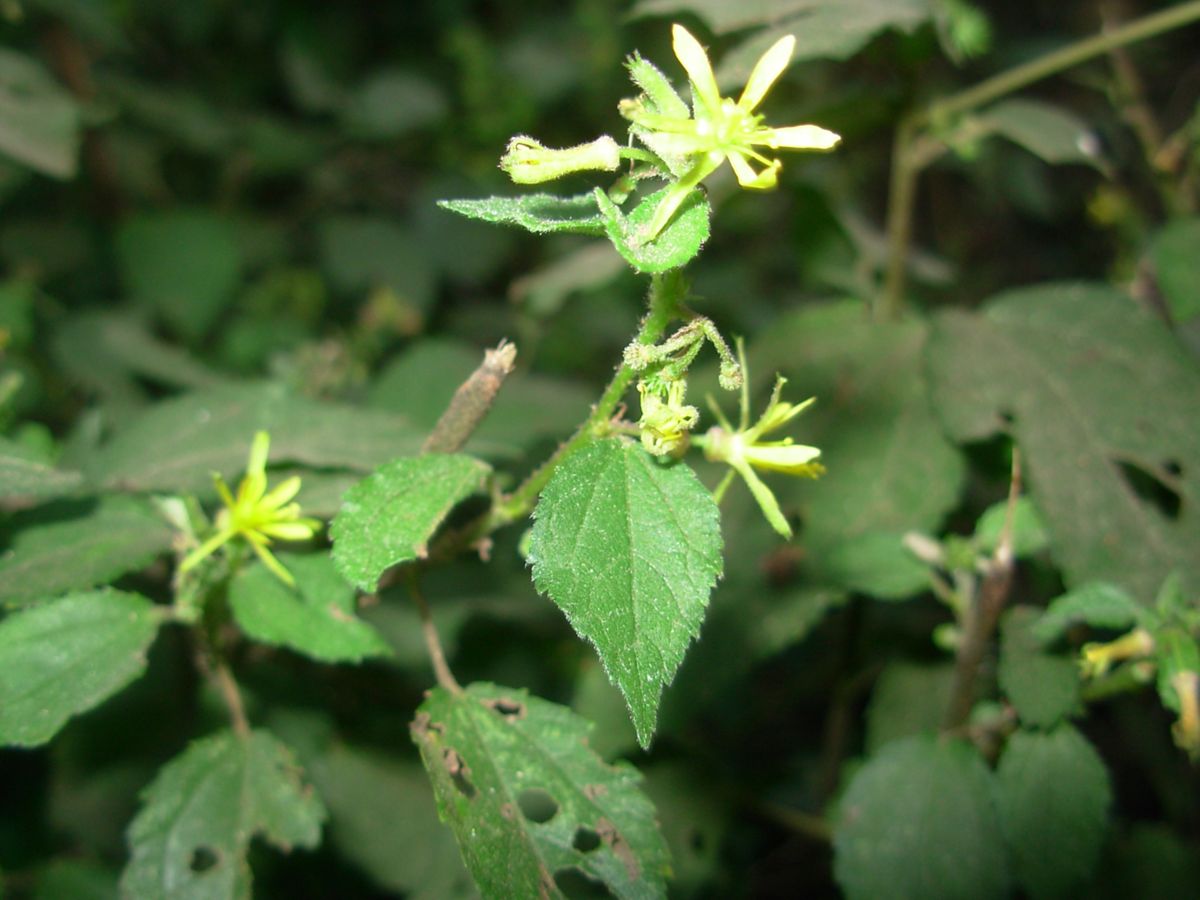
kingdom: Plantae
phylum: Tracheophyta
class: Magnoliopsida
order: Malvales
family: Malvaceae
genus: Triumfetta
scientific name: Triumfetta bogotensis
